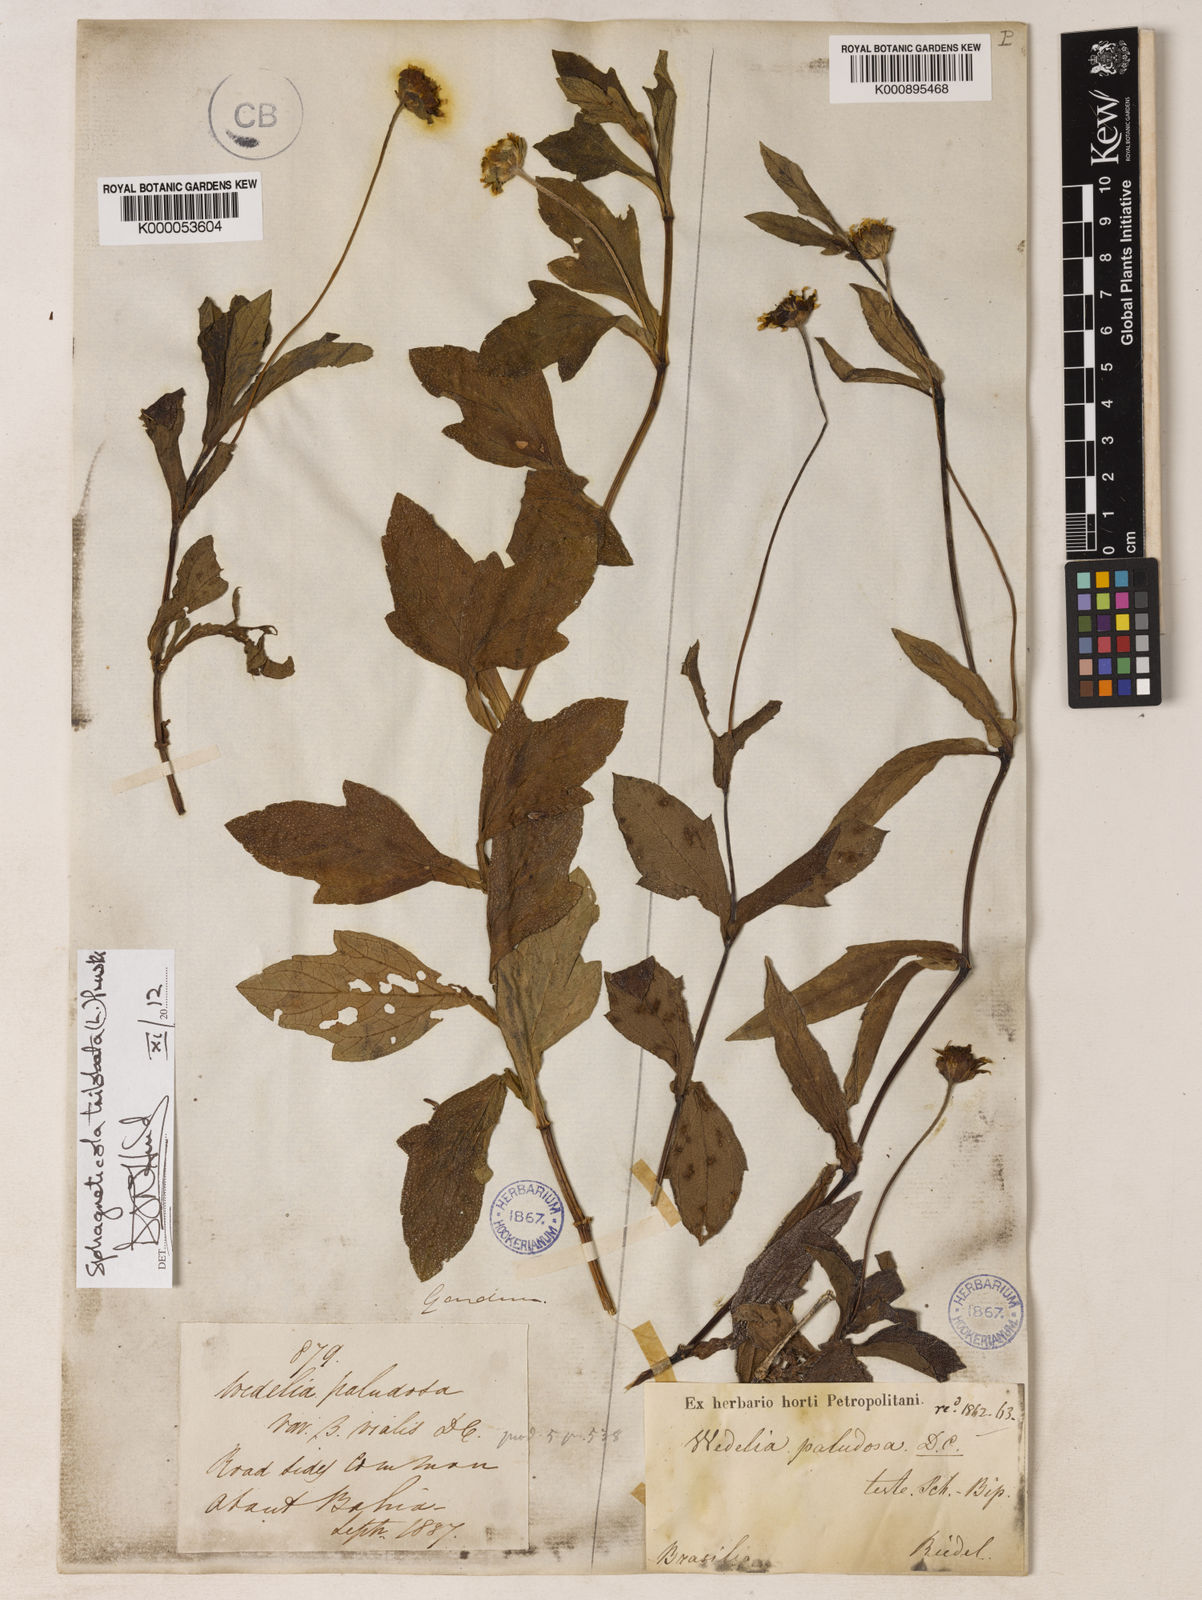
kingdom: Plantae
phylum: Tracheophyta
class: Magnoliopsida
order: Asterales
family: Asteraceae
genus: Sphagneticola
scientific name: Sphagneticola trilobata
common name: Bay biscayne creeping-oxeye
